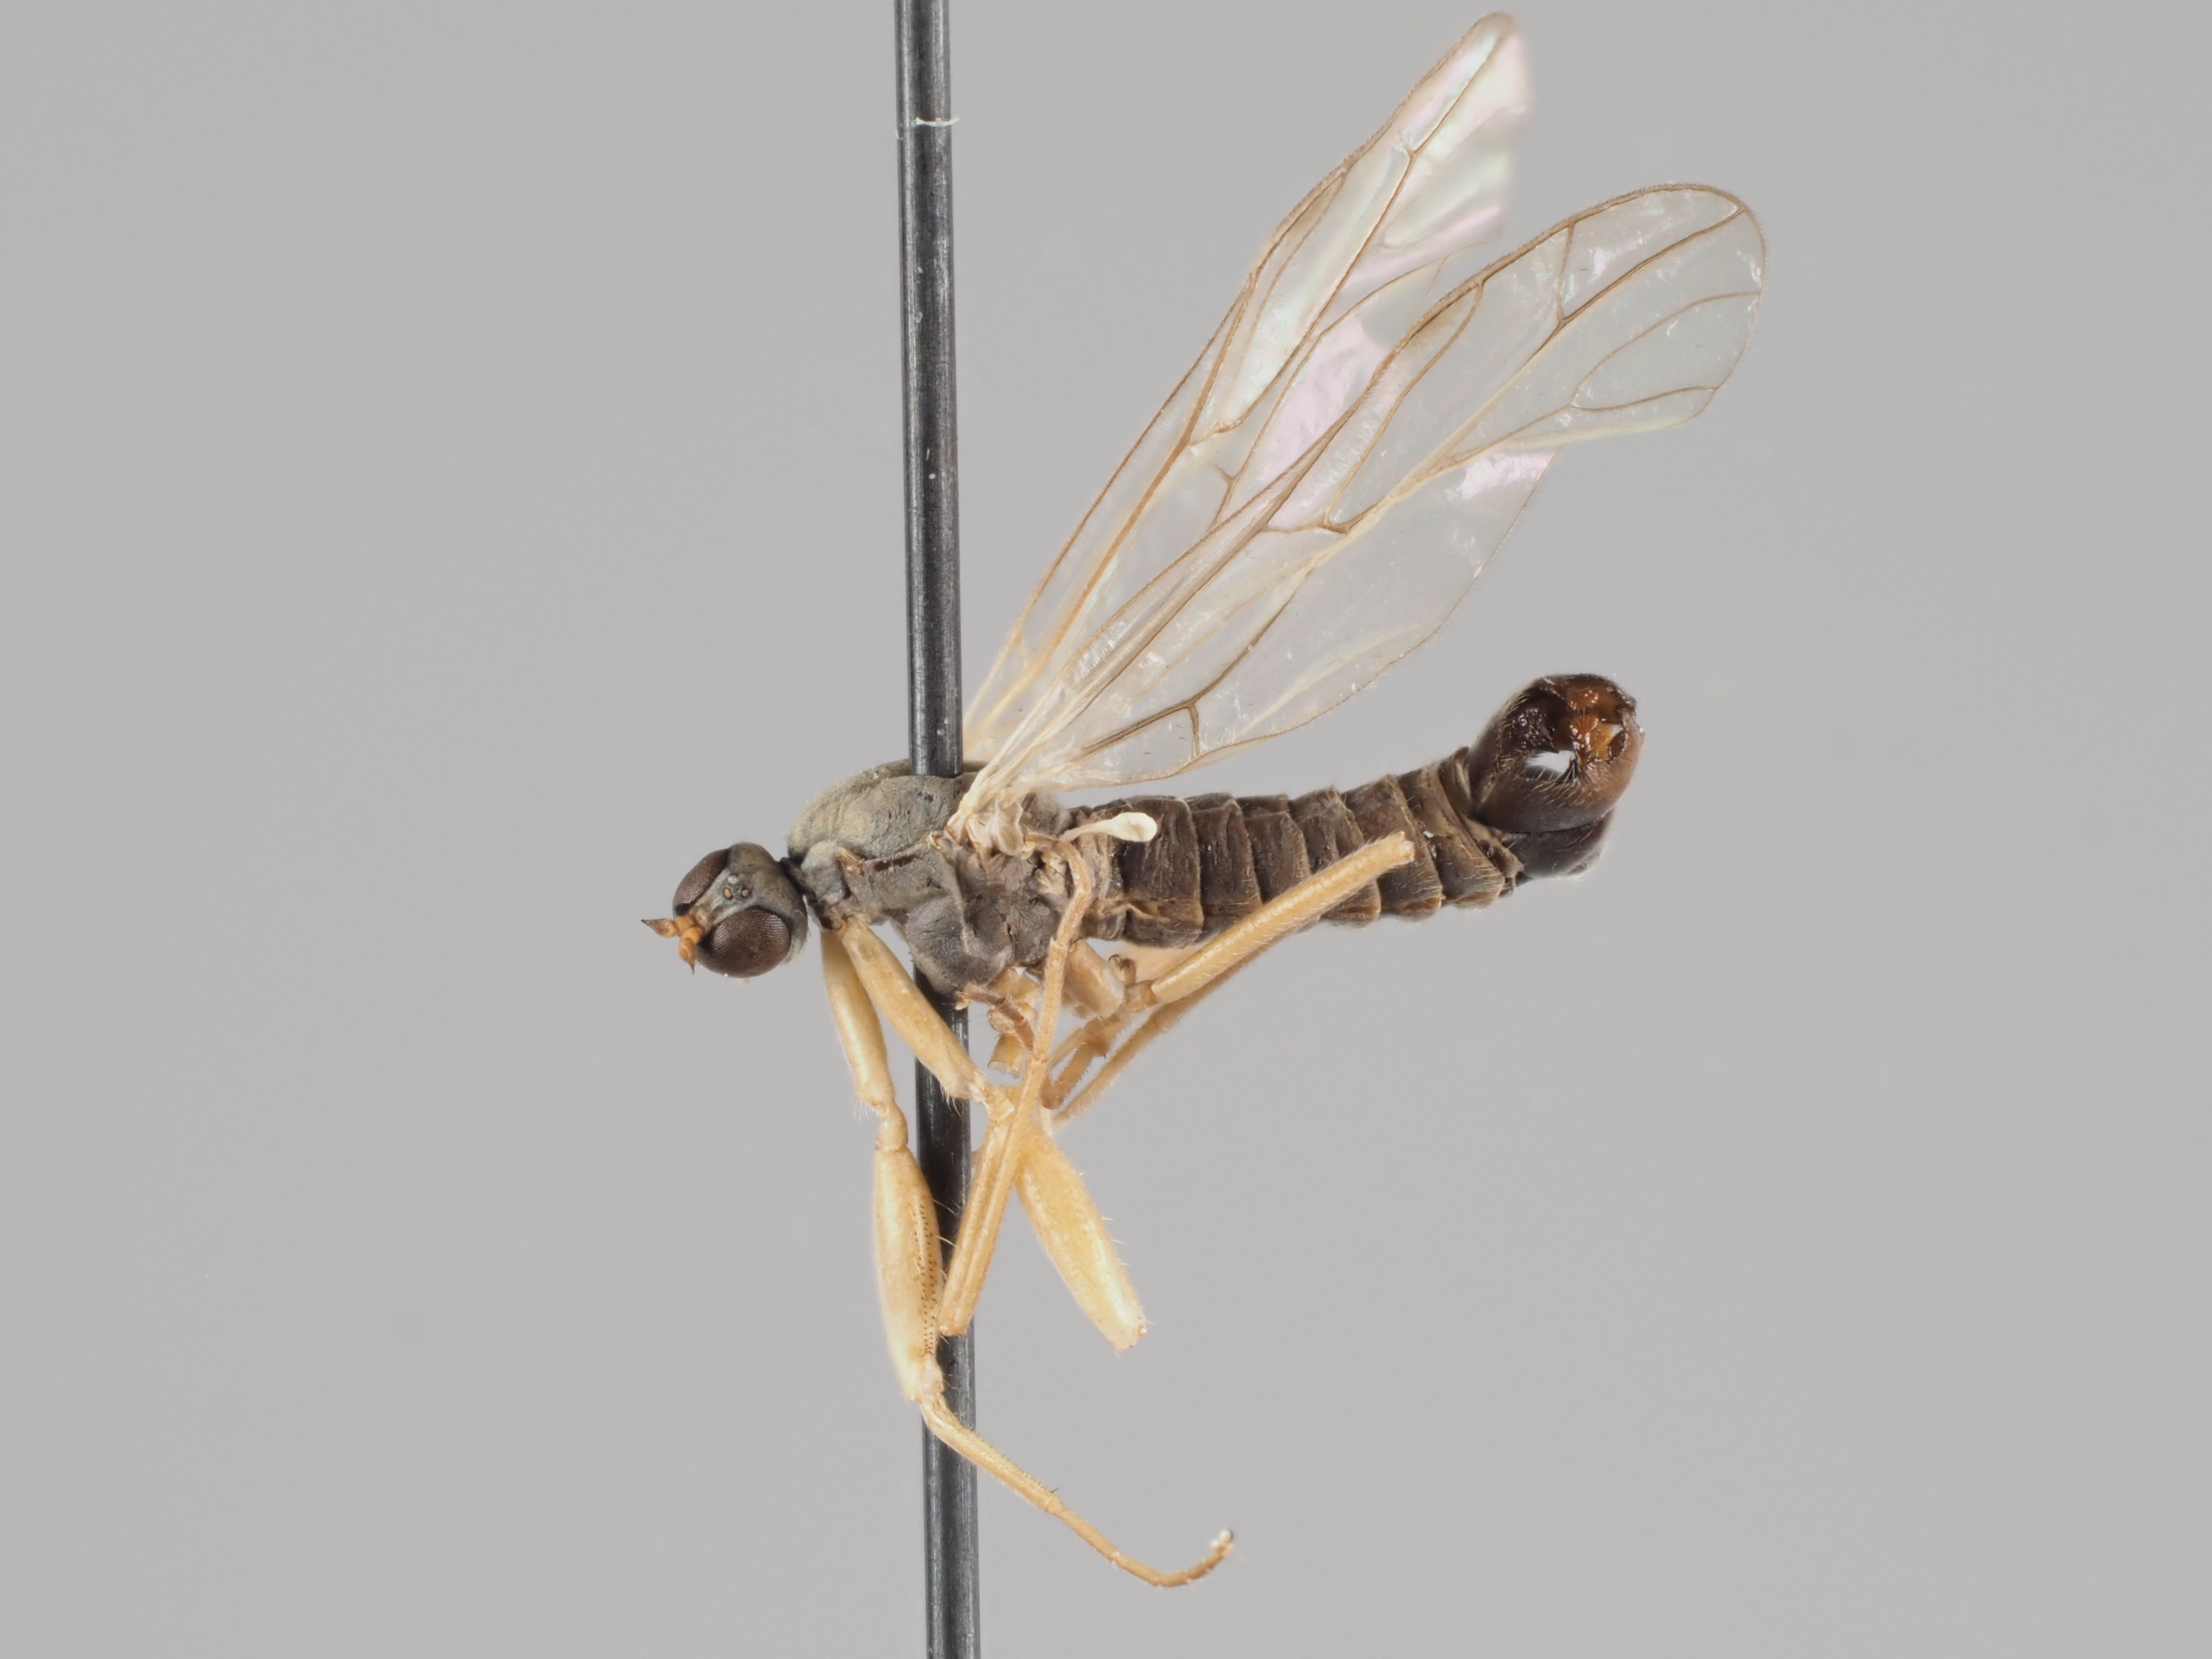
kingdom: Animalia
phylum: Arthropoda
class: Insecta
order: Diptera
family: Empididae
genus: Chelifera
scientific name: Chelifera frigelii
